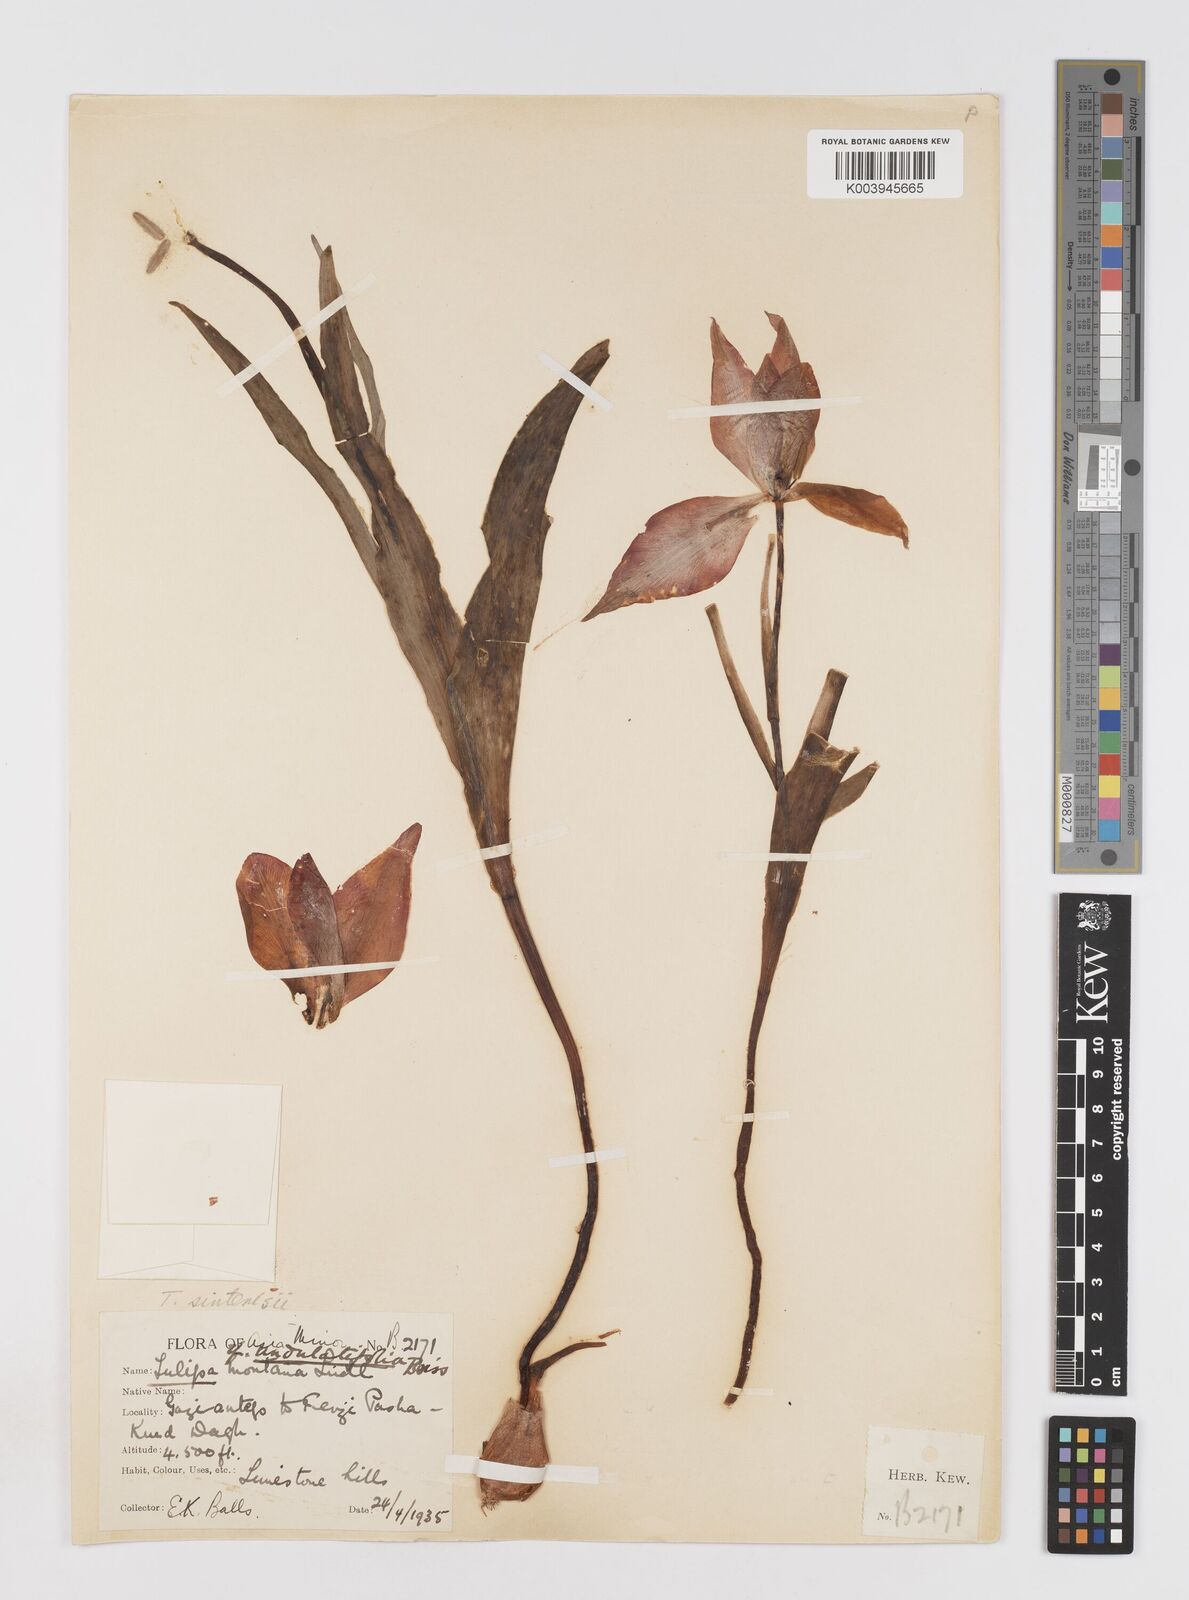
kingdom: Plantae
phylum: Tracheophyta
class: Liliopsida
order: Liliales
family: Liliaceae
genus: Tulipa
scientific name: Tulipa aleppensis
